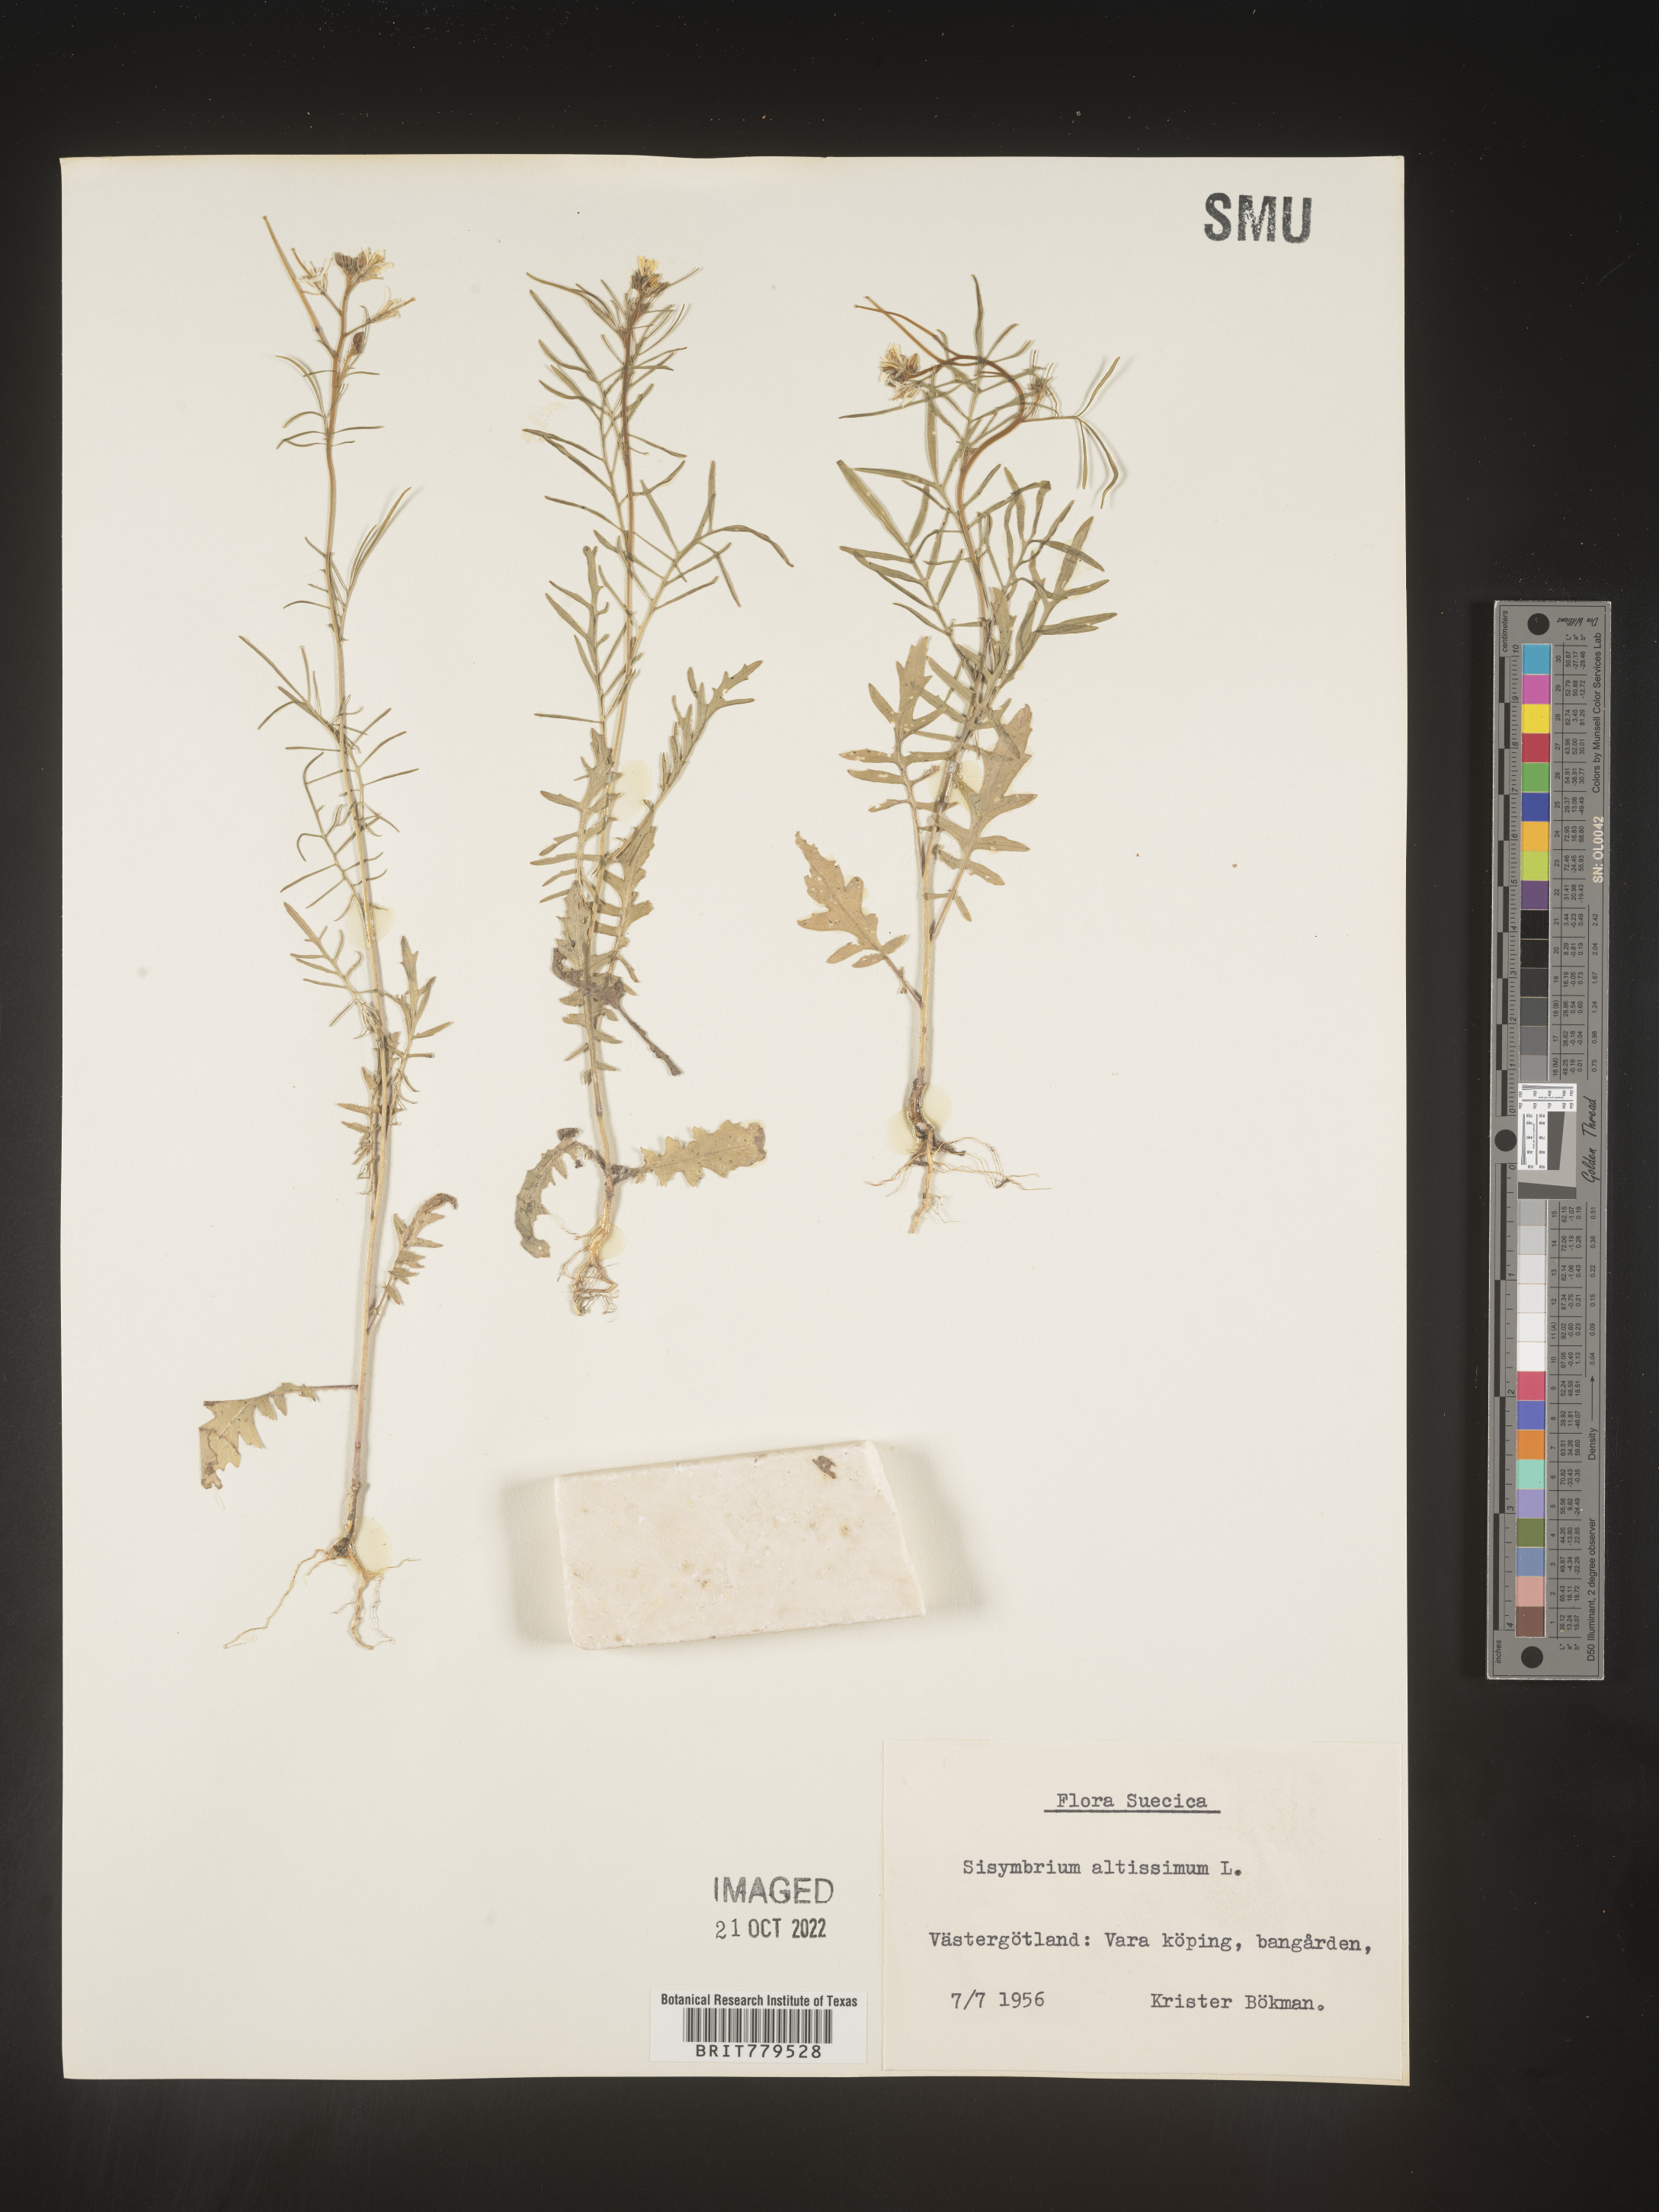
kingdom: Plantae
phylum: Tracheophyta
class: Magnoliopsida
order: Brassicales
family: Brassicaceae
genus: Sisymbrium
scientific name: Sisymbrium
